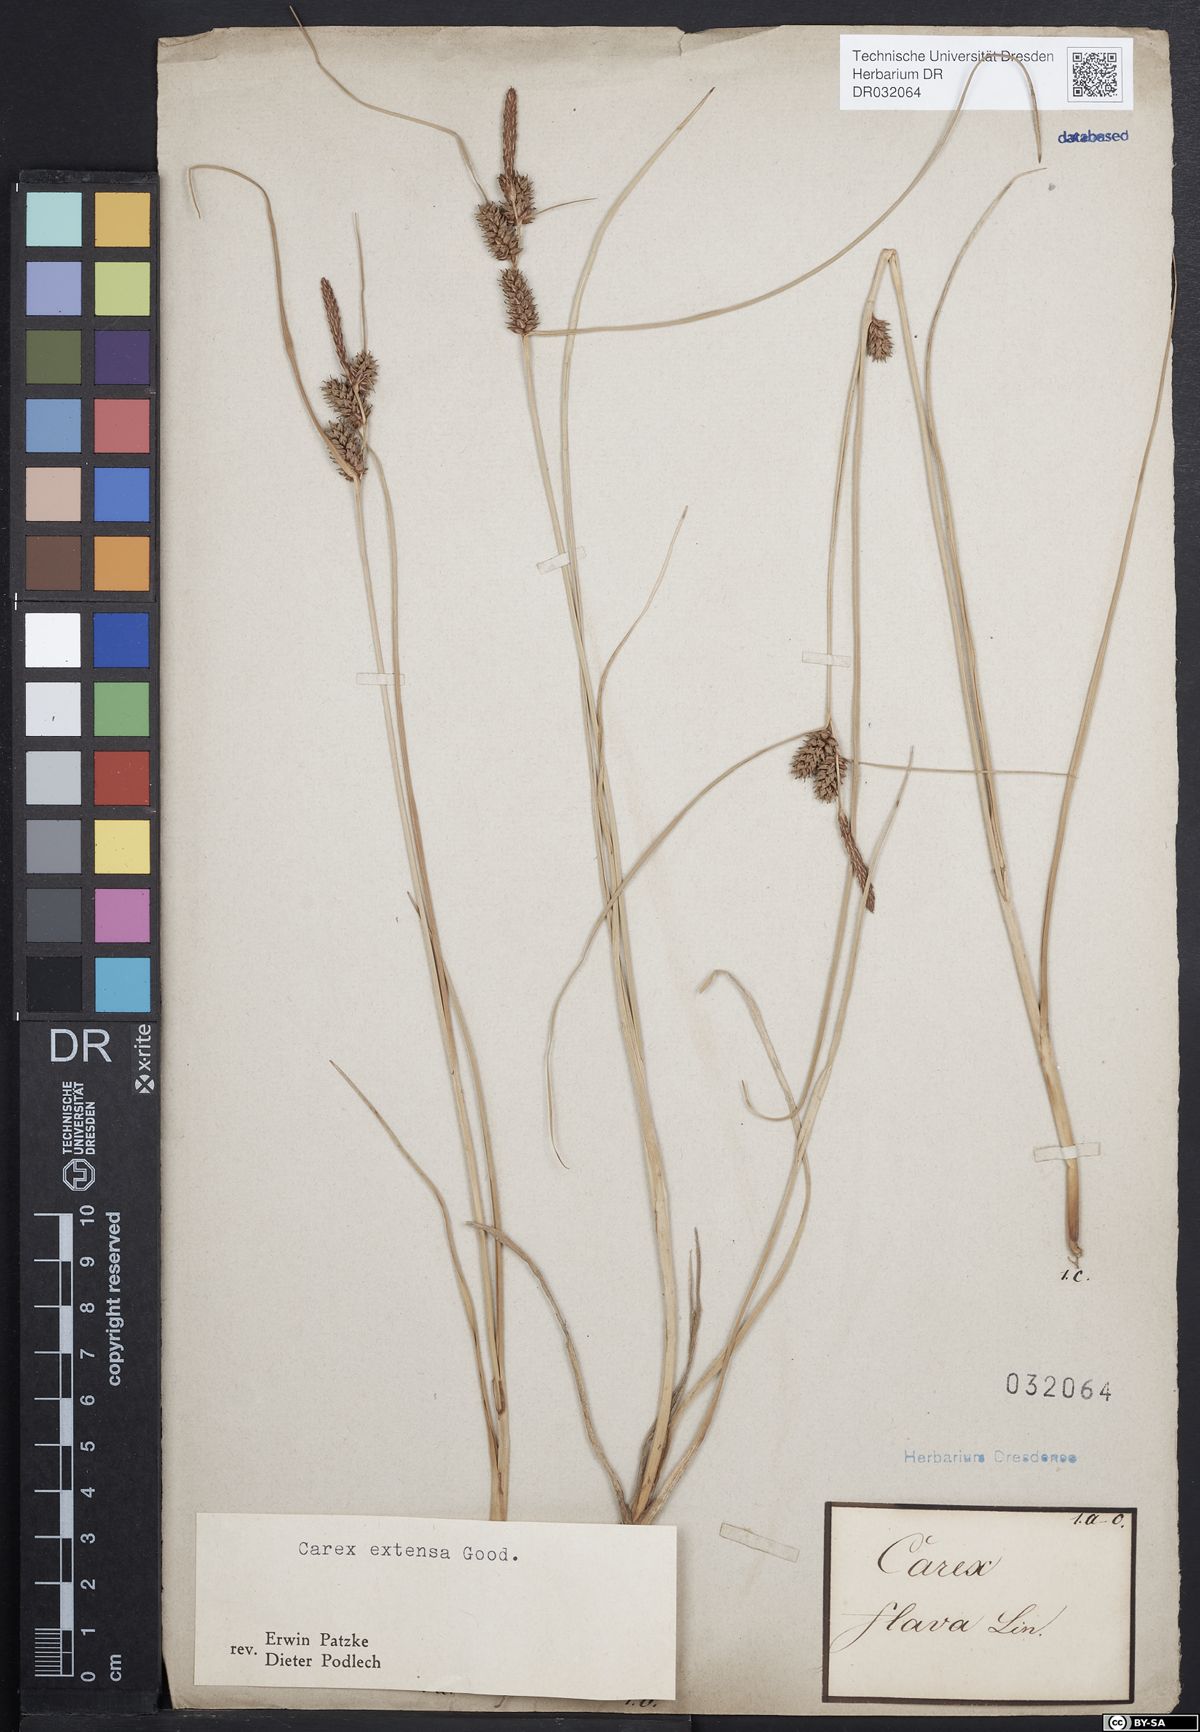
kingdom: Plantae
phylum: Tracheophyta
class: Liliopsida
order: Poales
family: Cyperaceae
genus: Carex
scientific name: Carex extensa
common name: Long-bracted sedge
